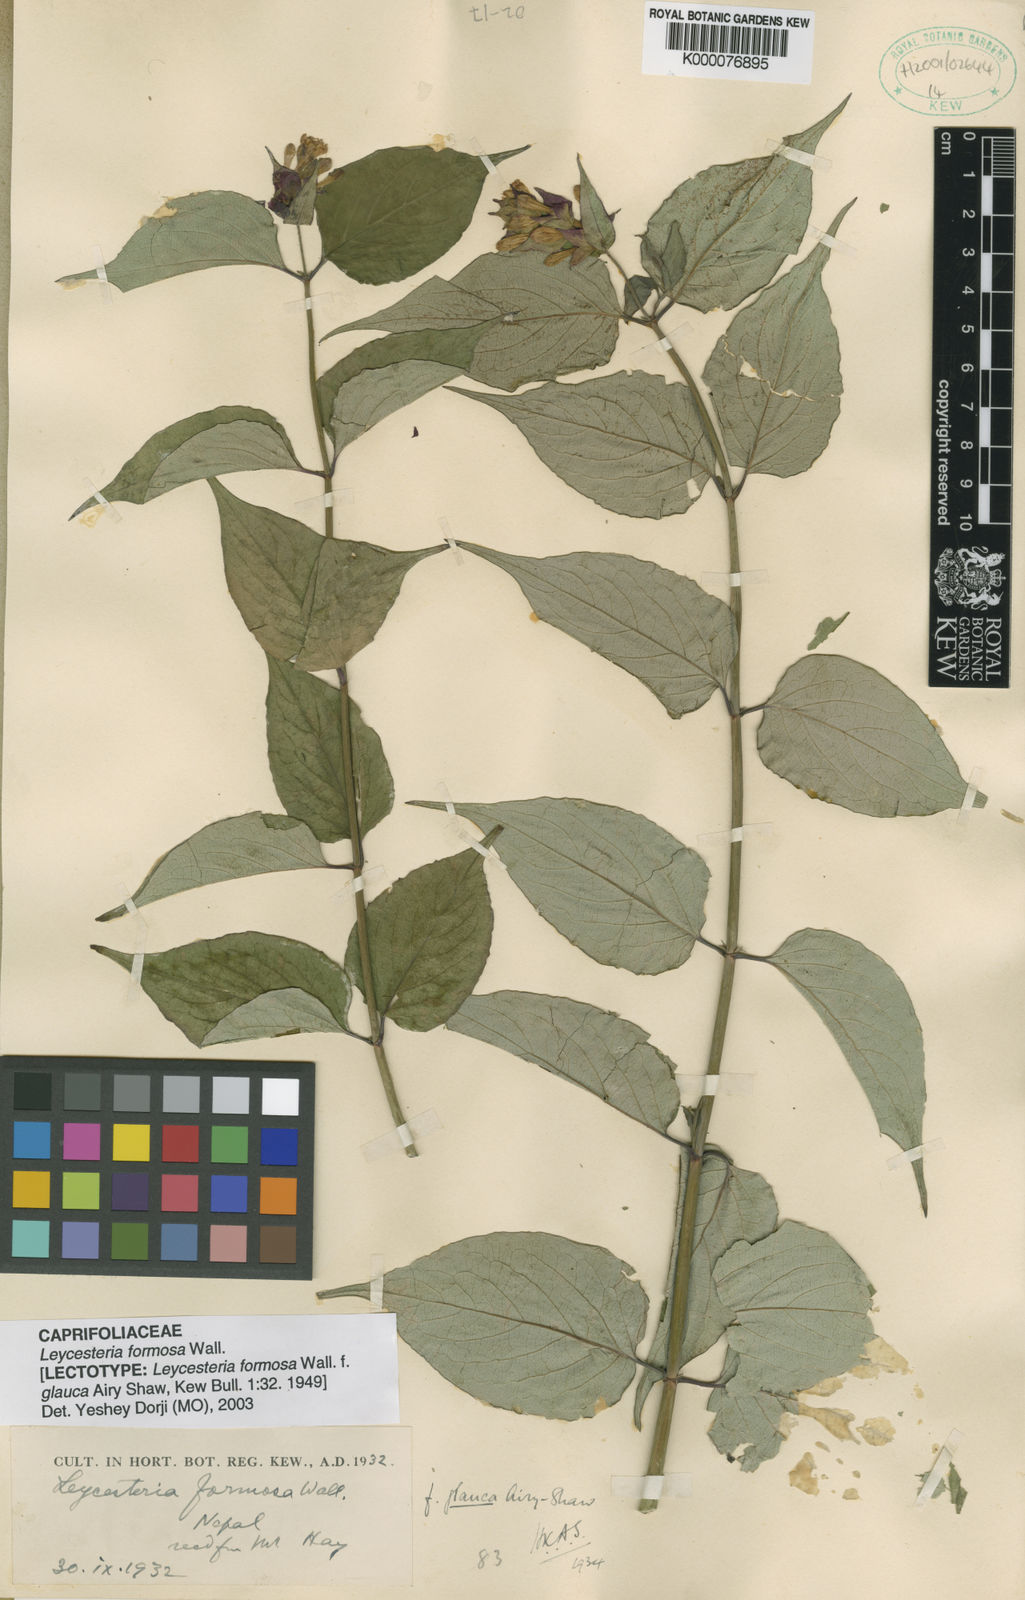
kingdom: Plantae
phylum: Tracheophyta
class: Magnoliopsida
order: Dipsacales
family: Caprifoliaceae
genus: Leycesteria
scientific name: Leycesteria formosa
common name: Himalayan honeysuckle
